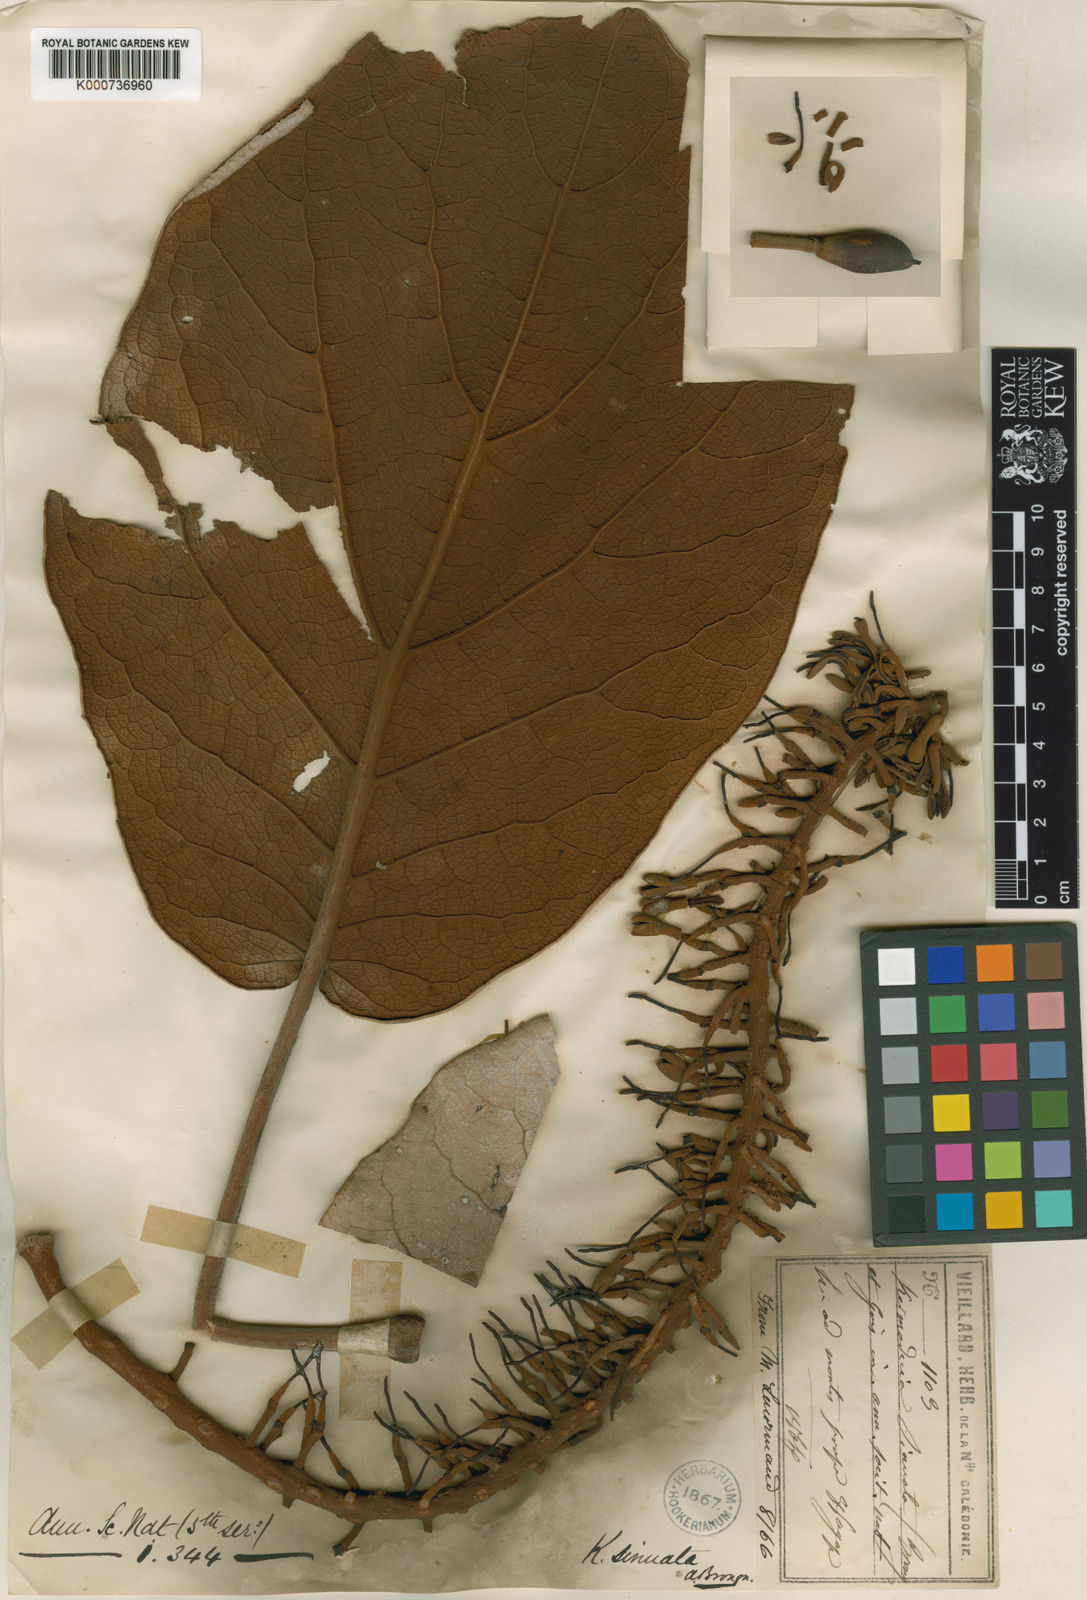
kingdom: Plantae
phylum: Tracheophyta
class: Magnoliopsida
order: Proteales
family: Proteaceae
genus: Kermadecia
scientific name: Kermadecia sinuata
